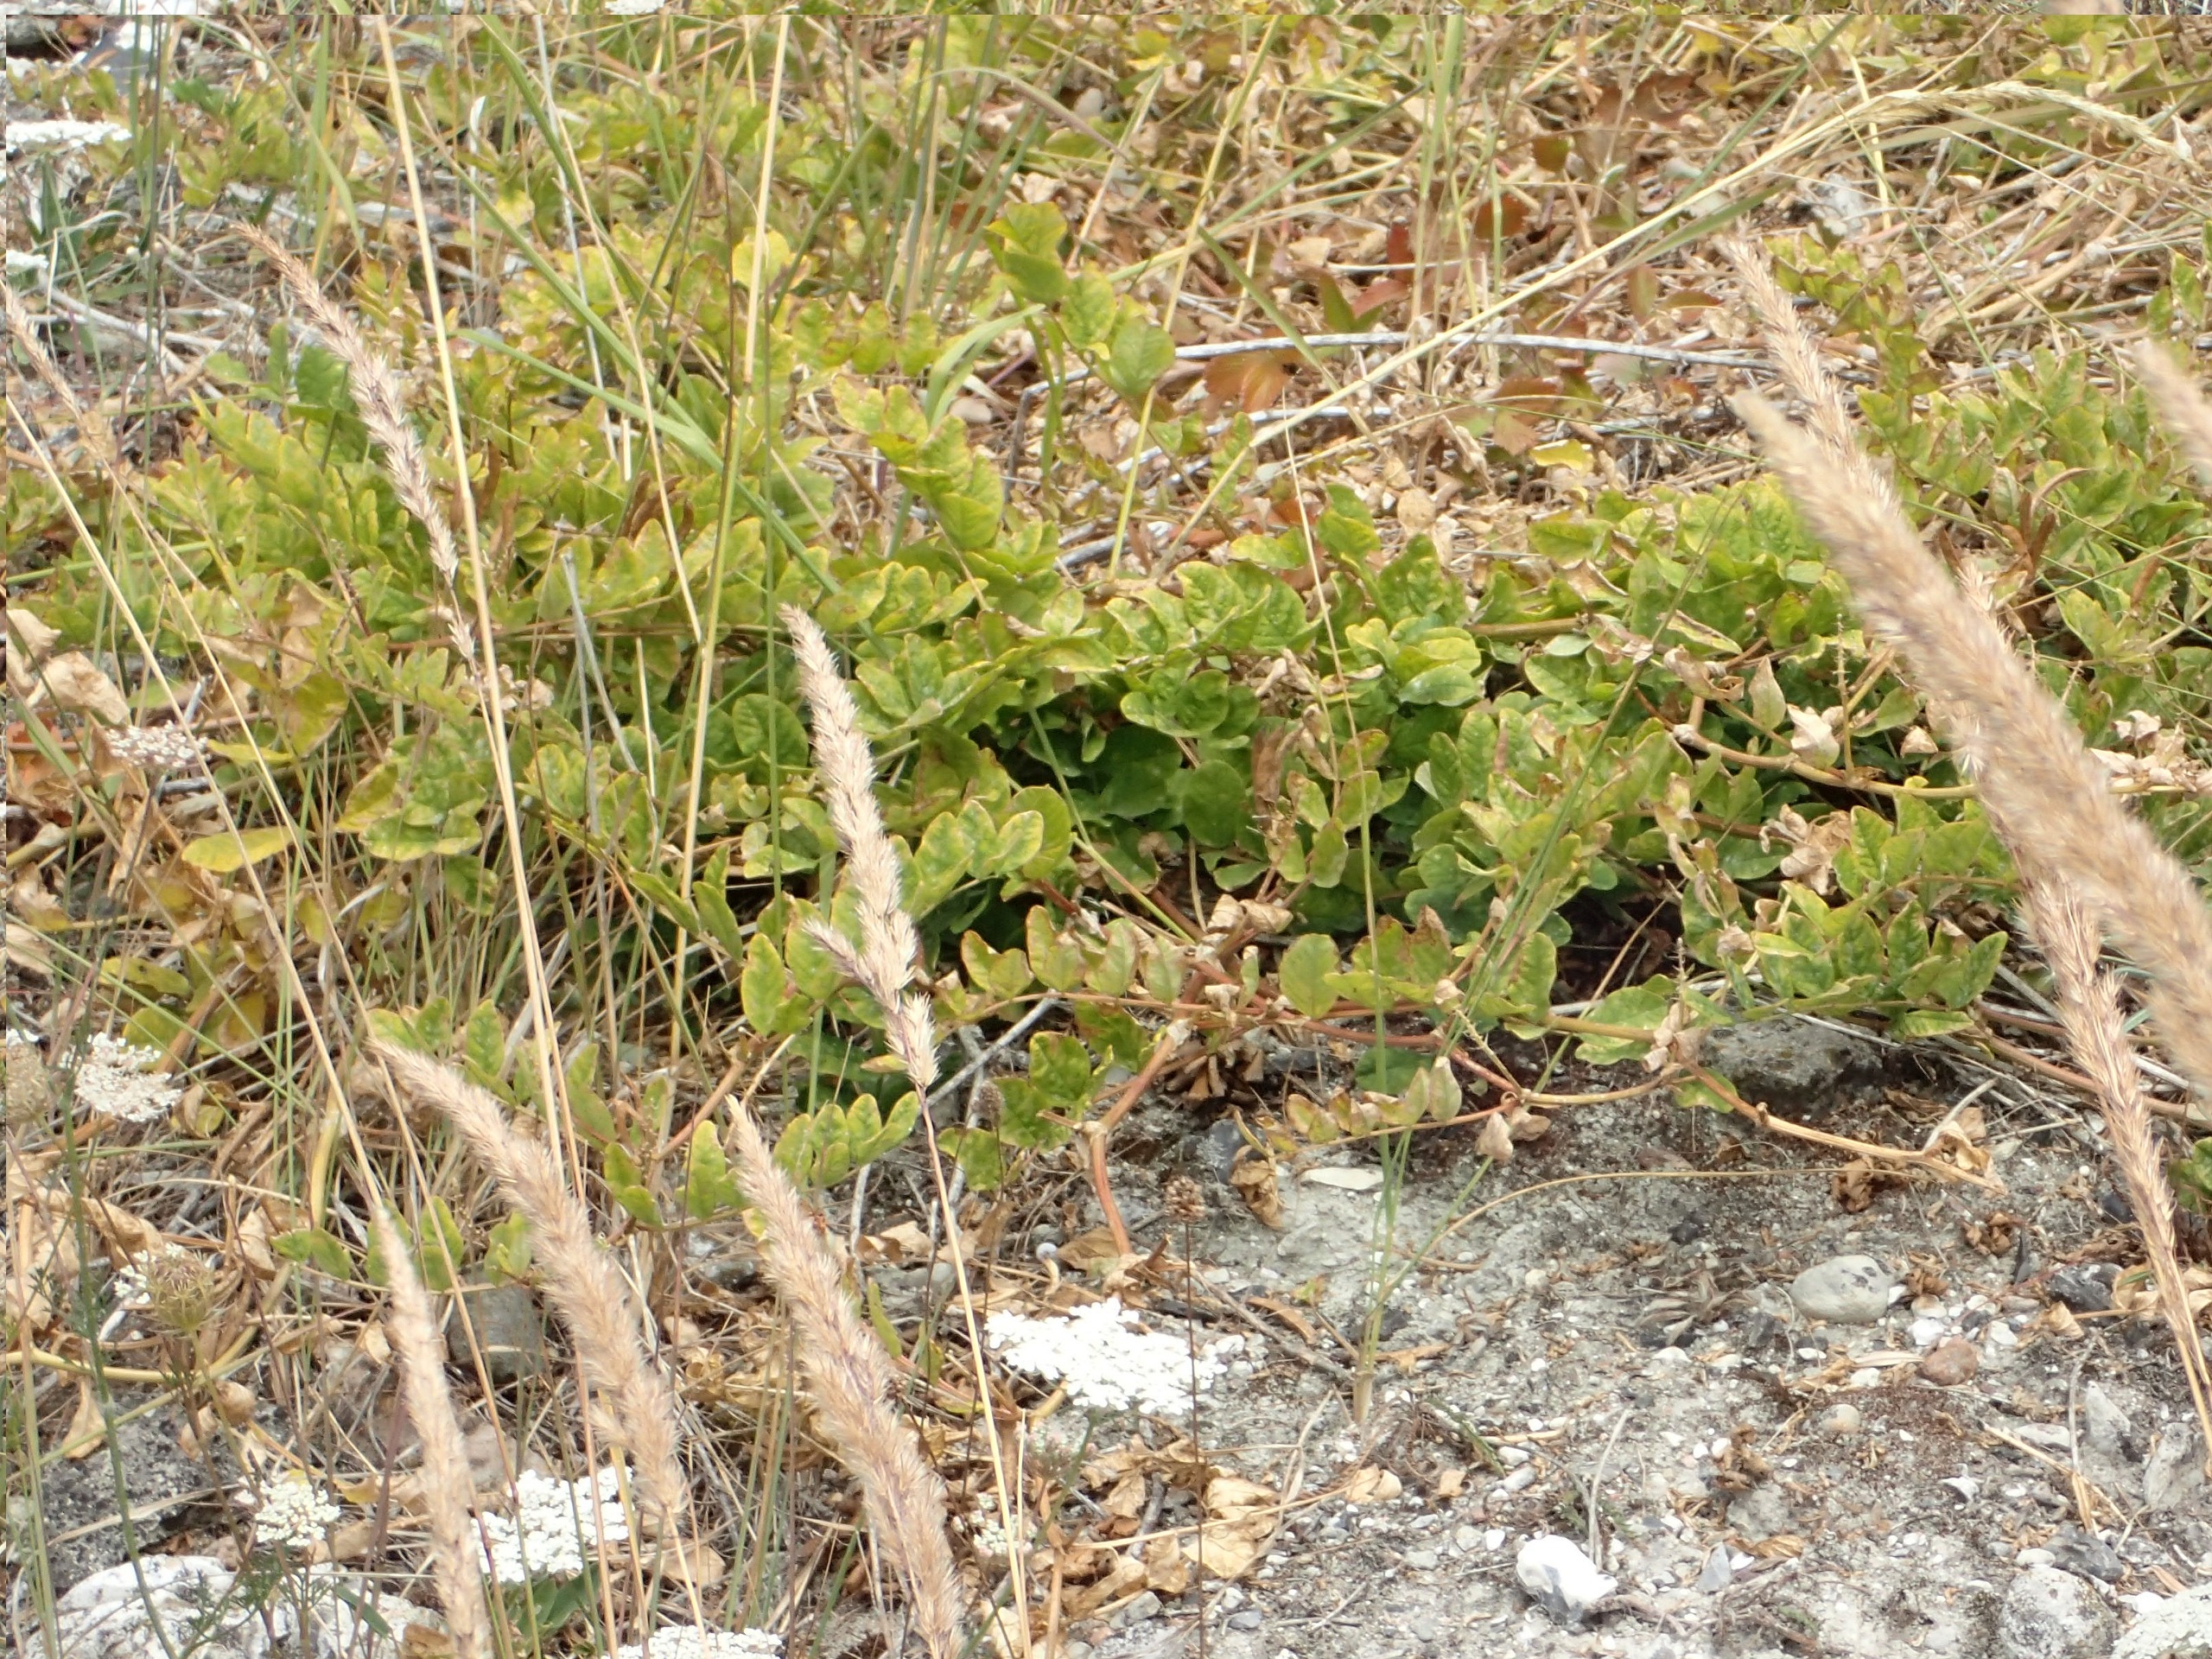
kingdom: Plantae
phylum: Tracheophyta
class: Magnoliopsida
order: Fabales
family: Fabaceae
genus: Astragalus
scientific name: Astragalus glycyphyllos
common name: Sød astragel
